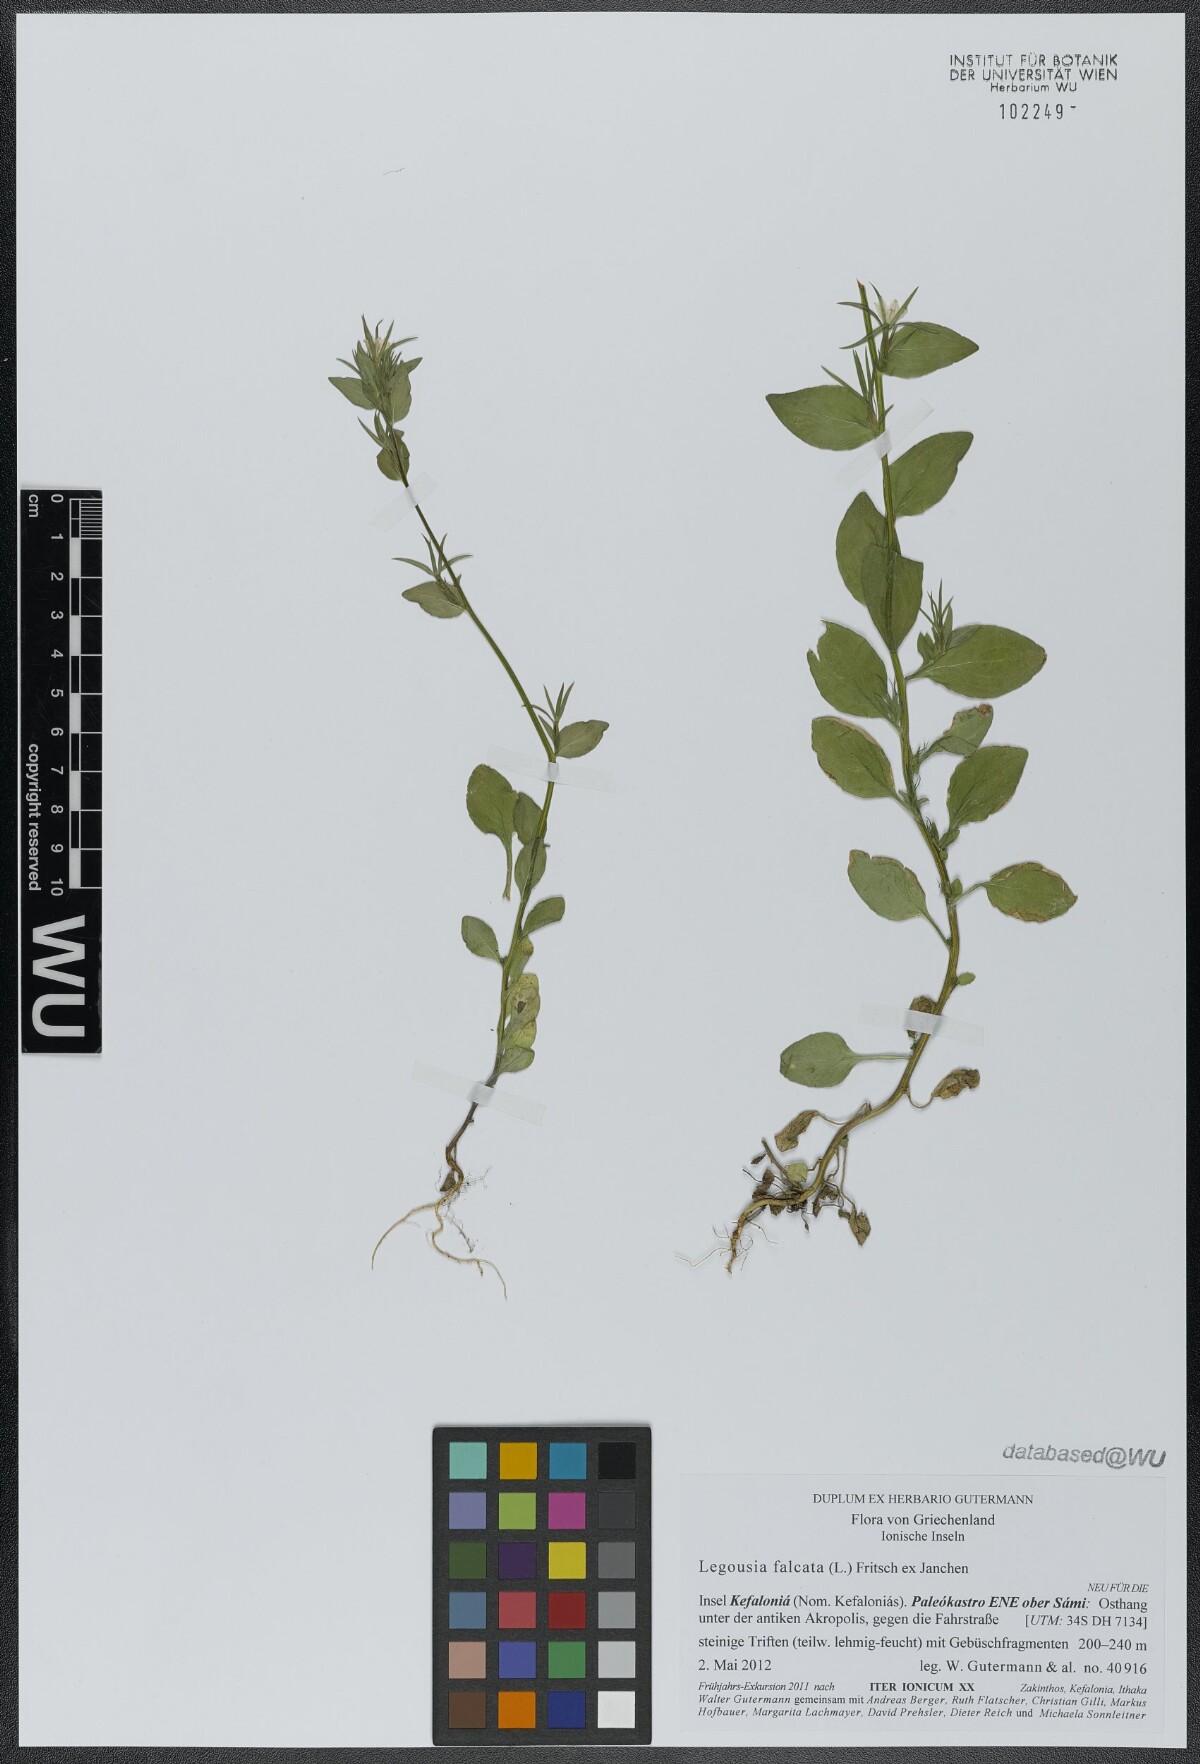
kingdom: Plantae
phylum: Tracheophyta
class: Magnoliopsida
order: Asterales
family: Campanulaceae
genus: Legousia
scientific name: Legousia falcata
